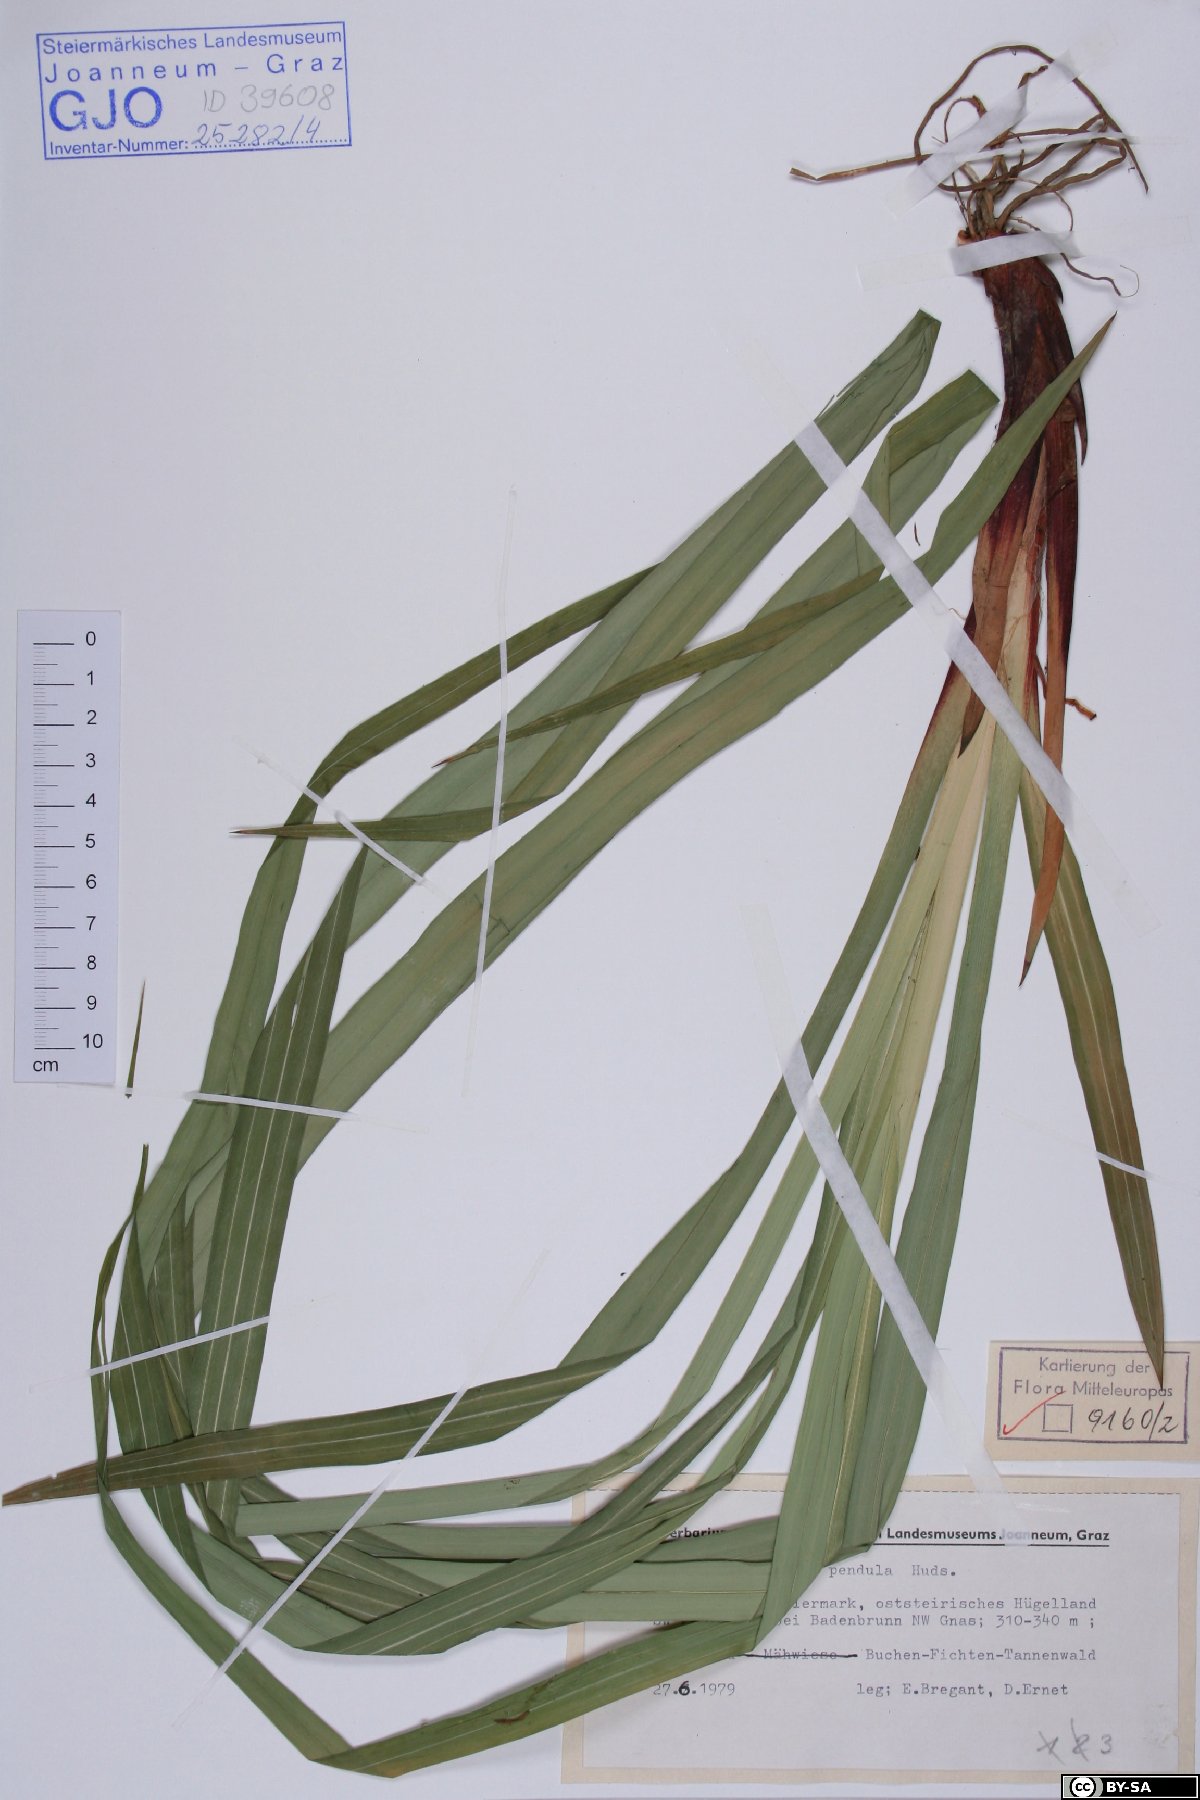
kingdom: Plantae
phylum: Tracheophyta
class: Liliopsida
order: Poales
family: Cyperaceae
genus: Carex
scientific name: Carex pendula
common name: Pendulous sedge
